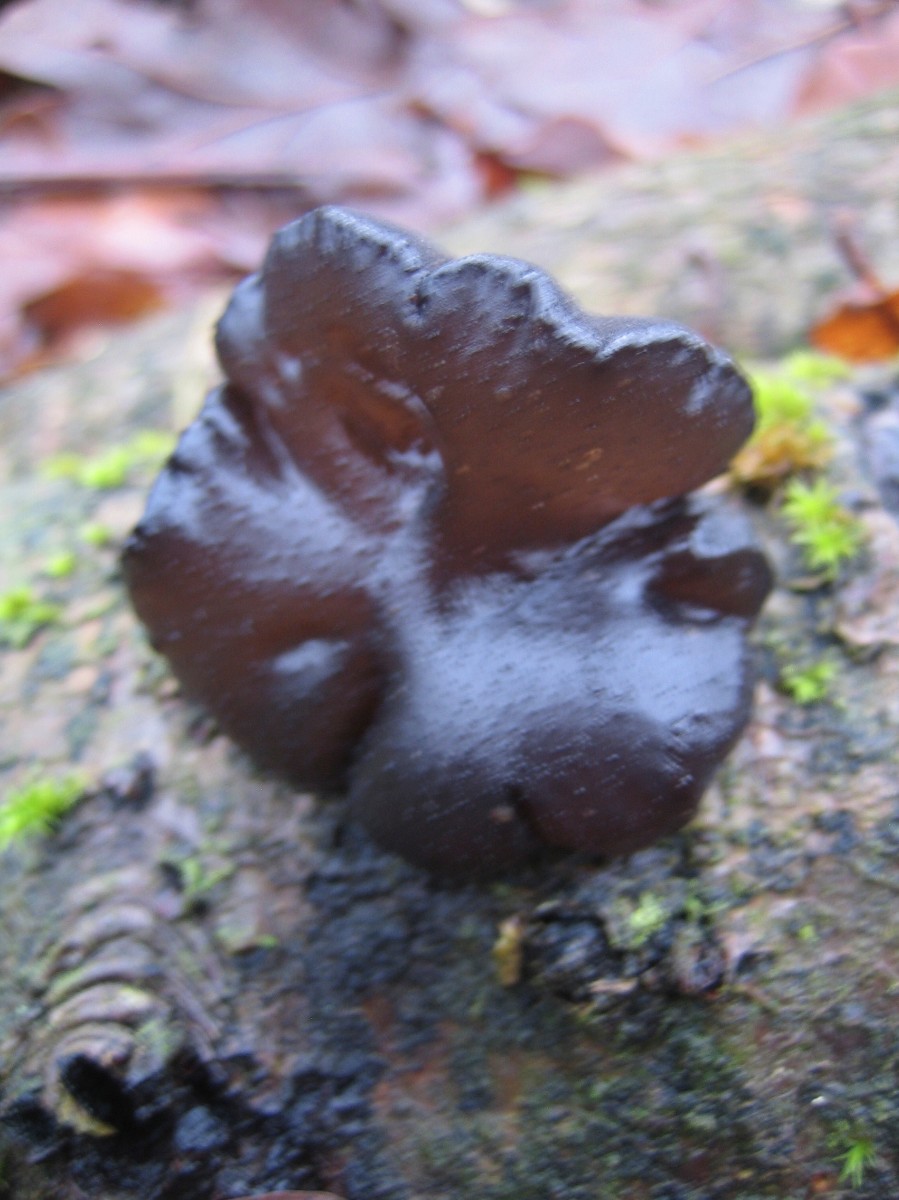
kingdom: Fungi
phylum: Basidiomycota
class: Agaricomycetes
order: Auriculariales
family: Auriculariaceae
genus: Exidia
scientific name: Exidia glandulosa
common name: ege-bævretop
